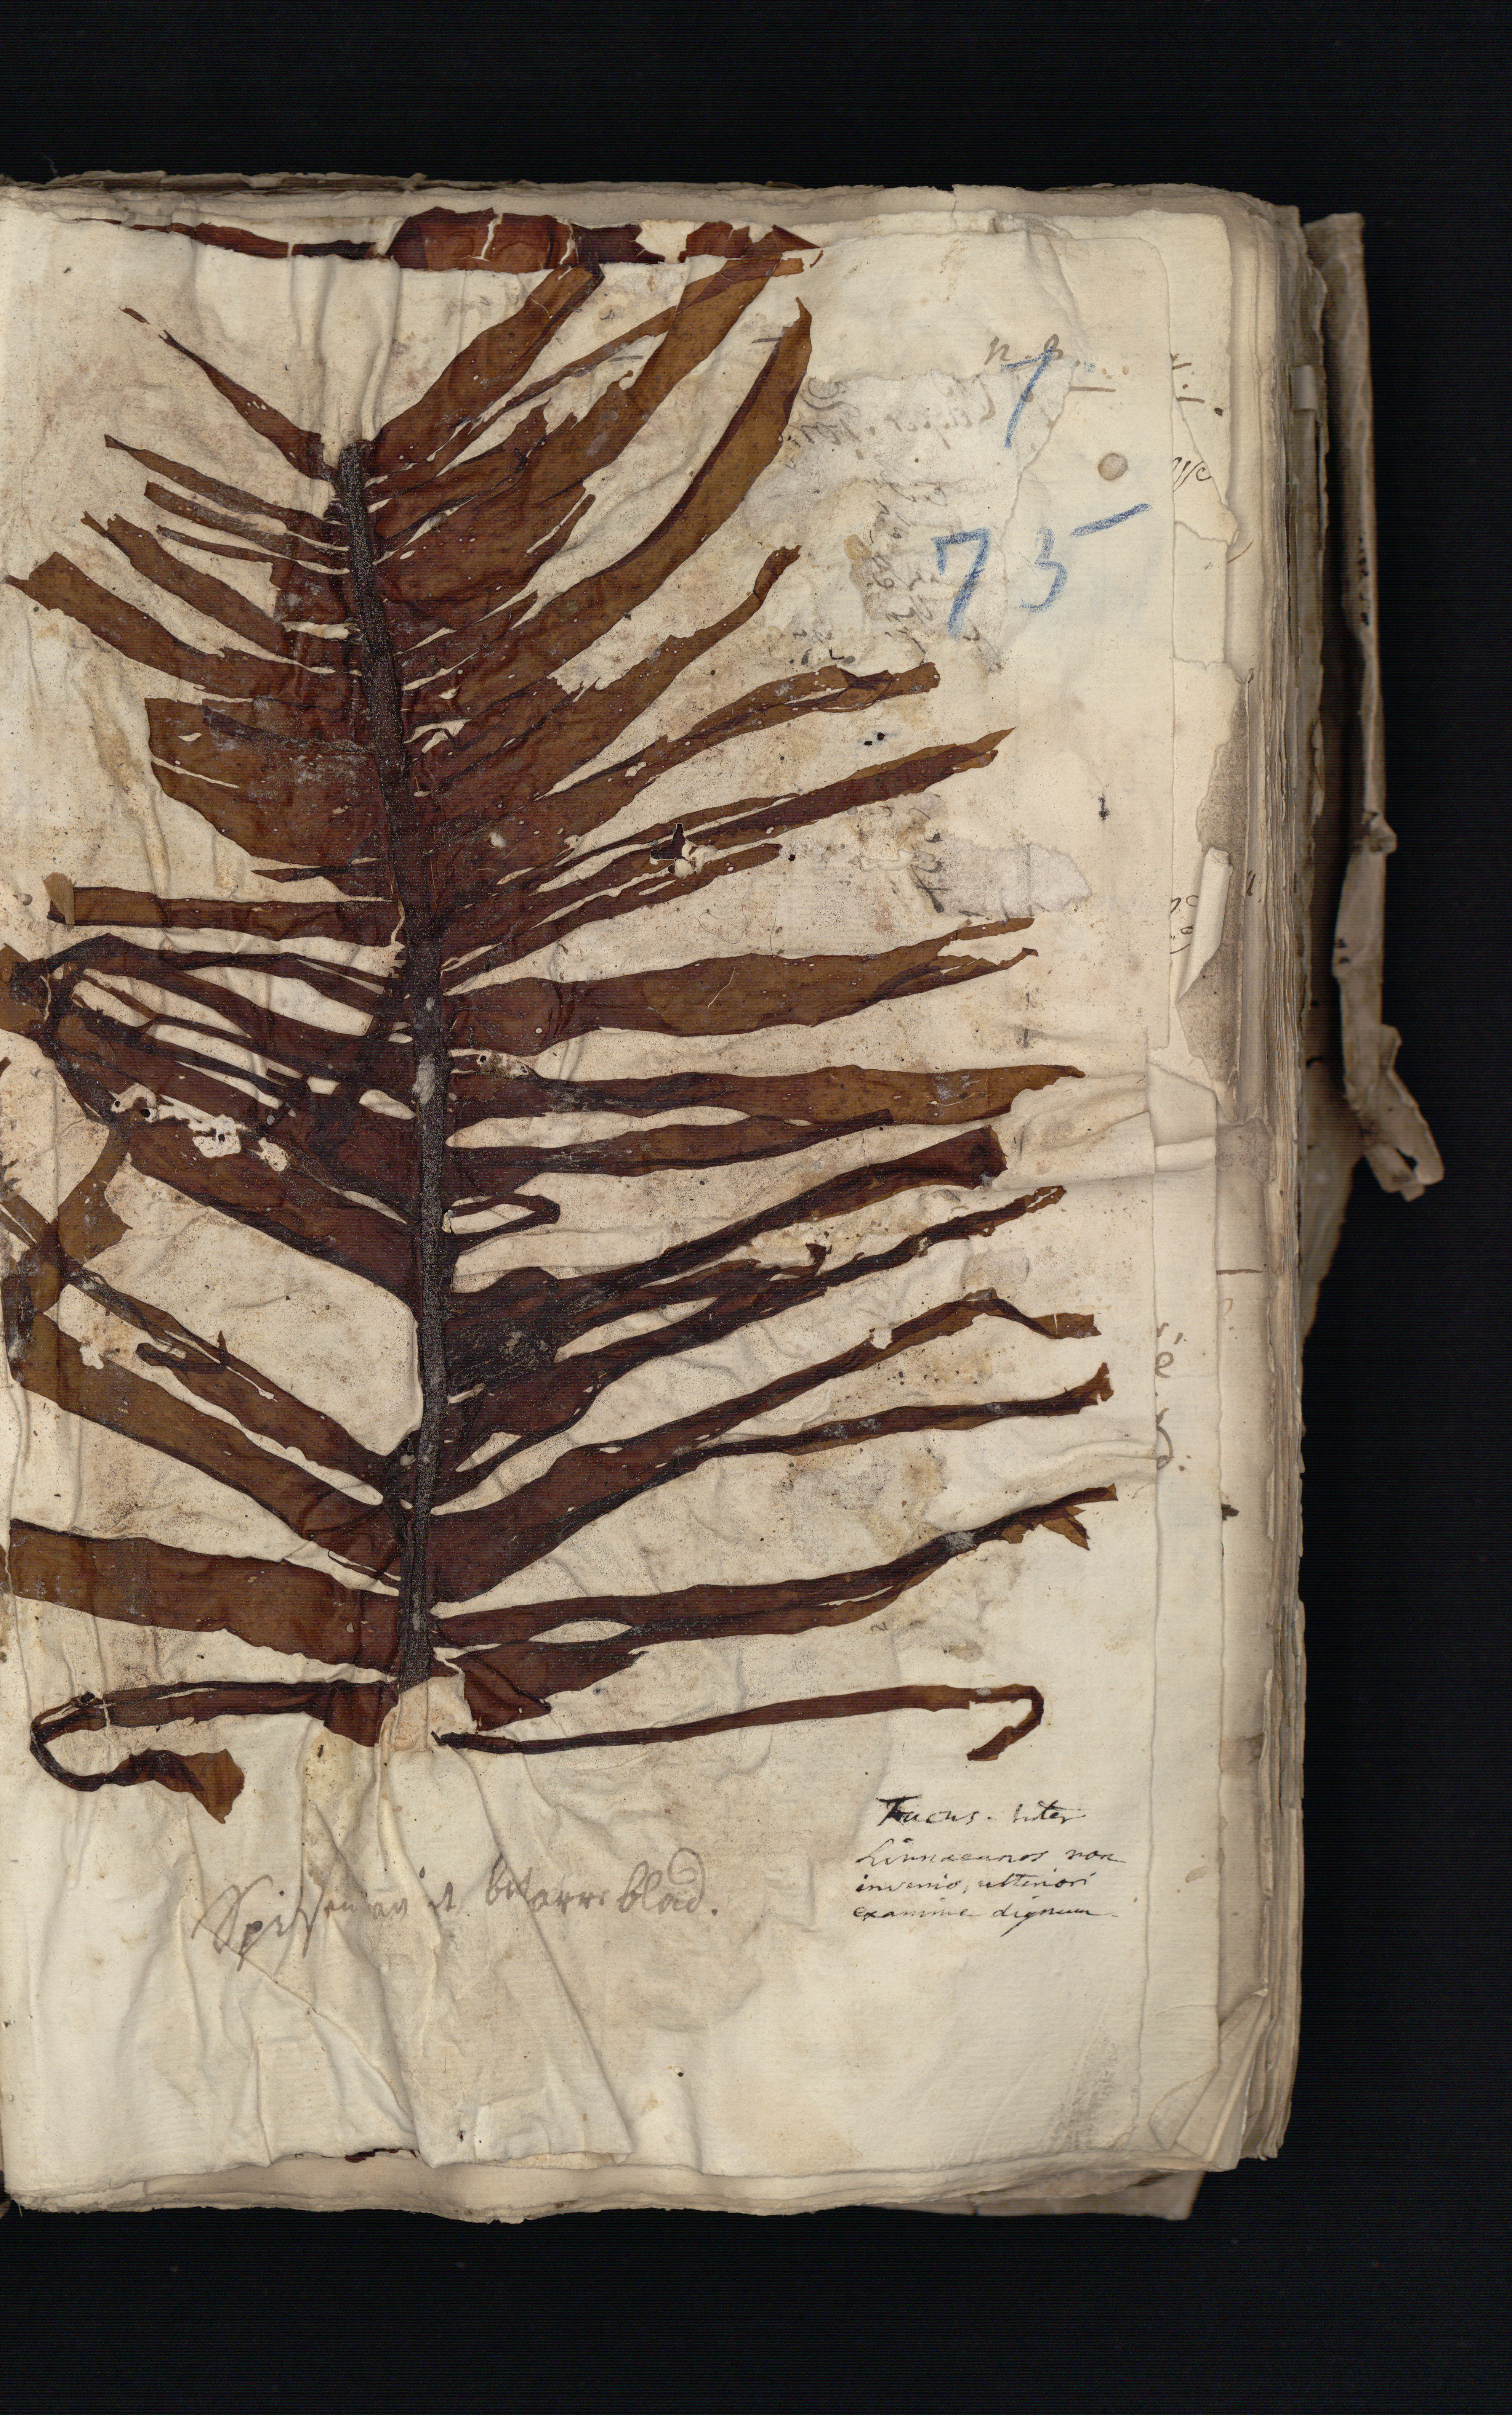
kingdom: Chromista
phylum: Ochrophyta
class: Phaeophyceae
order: Laminariales
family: Alariaceae
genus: Alaria
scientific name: Alaria esculenta
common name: Dabberlocks
